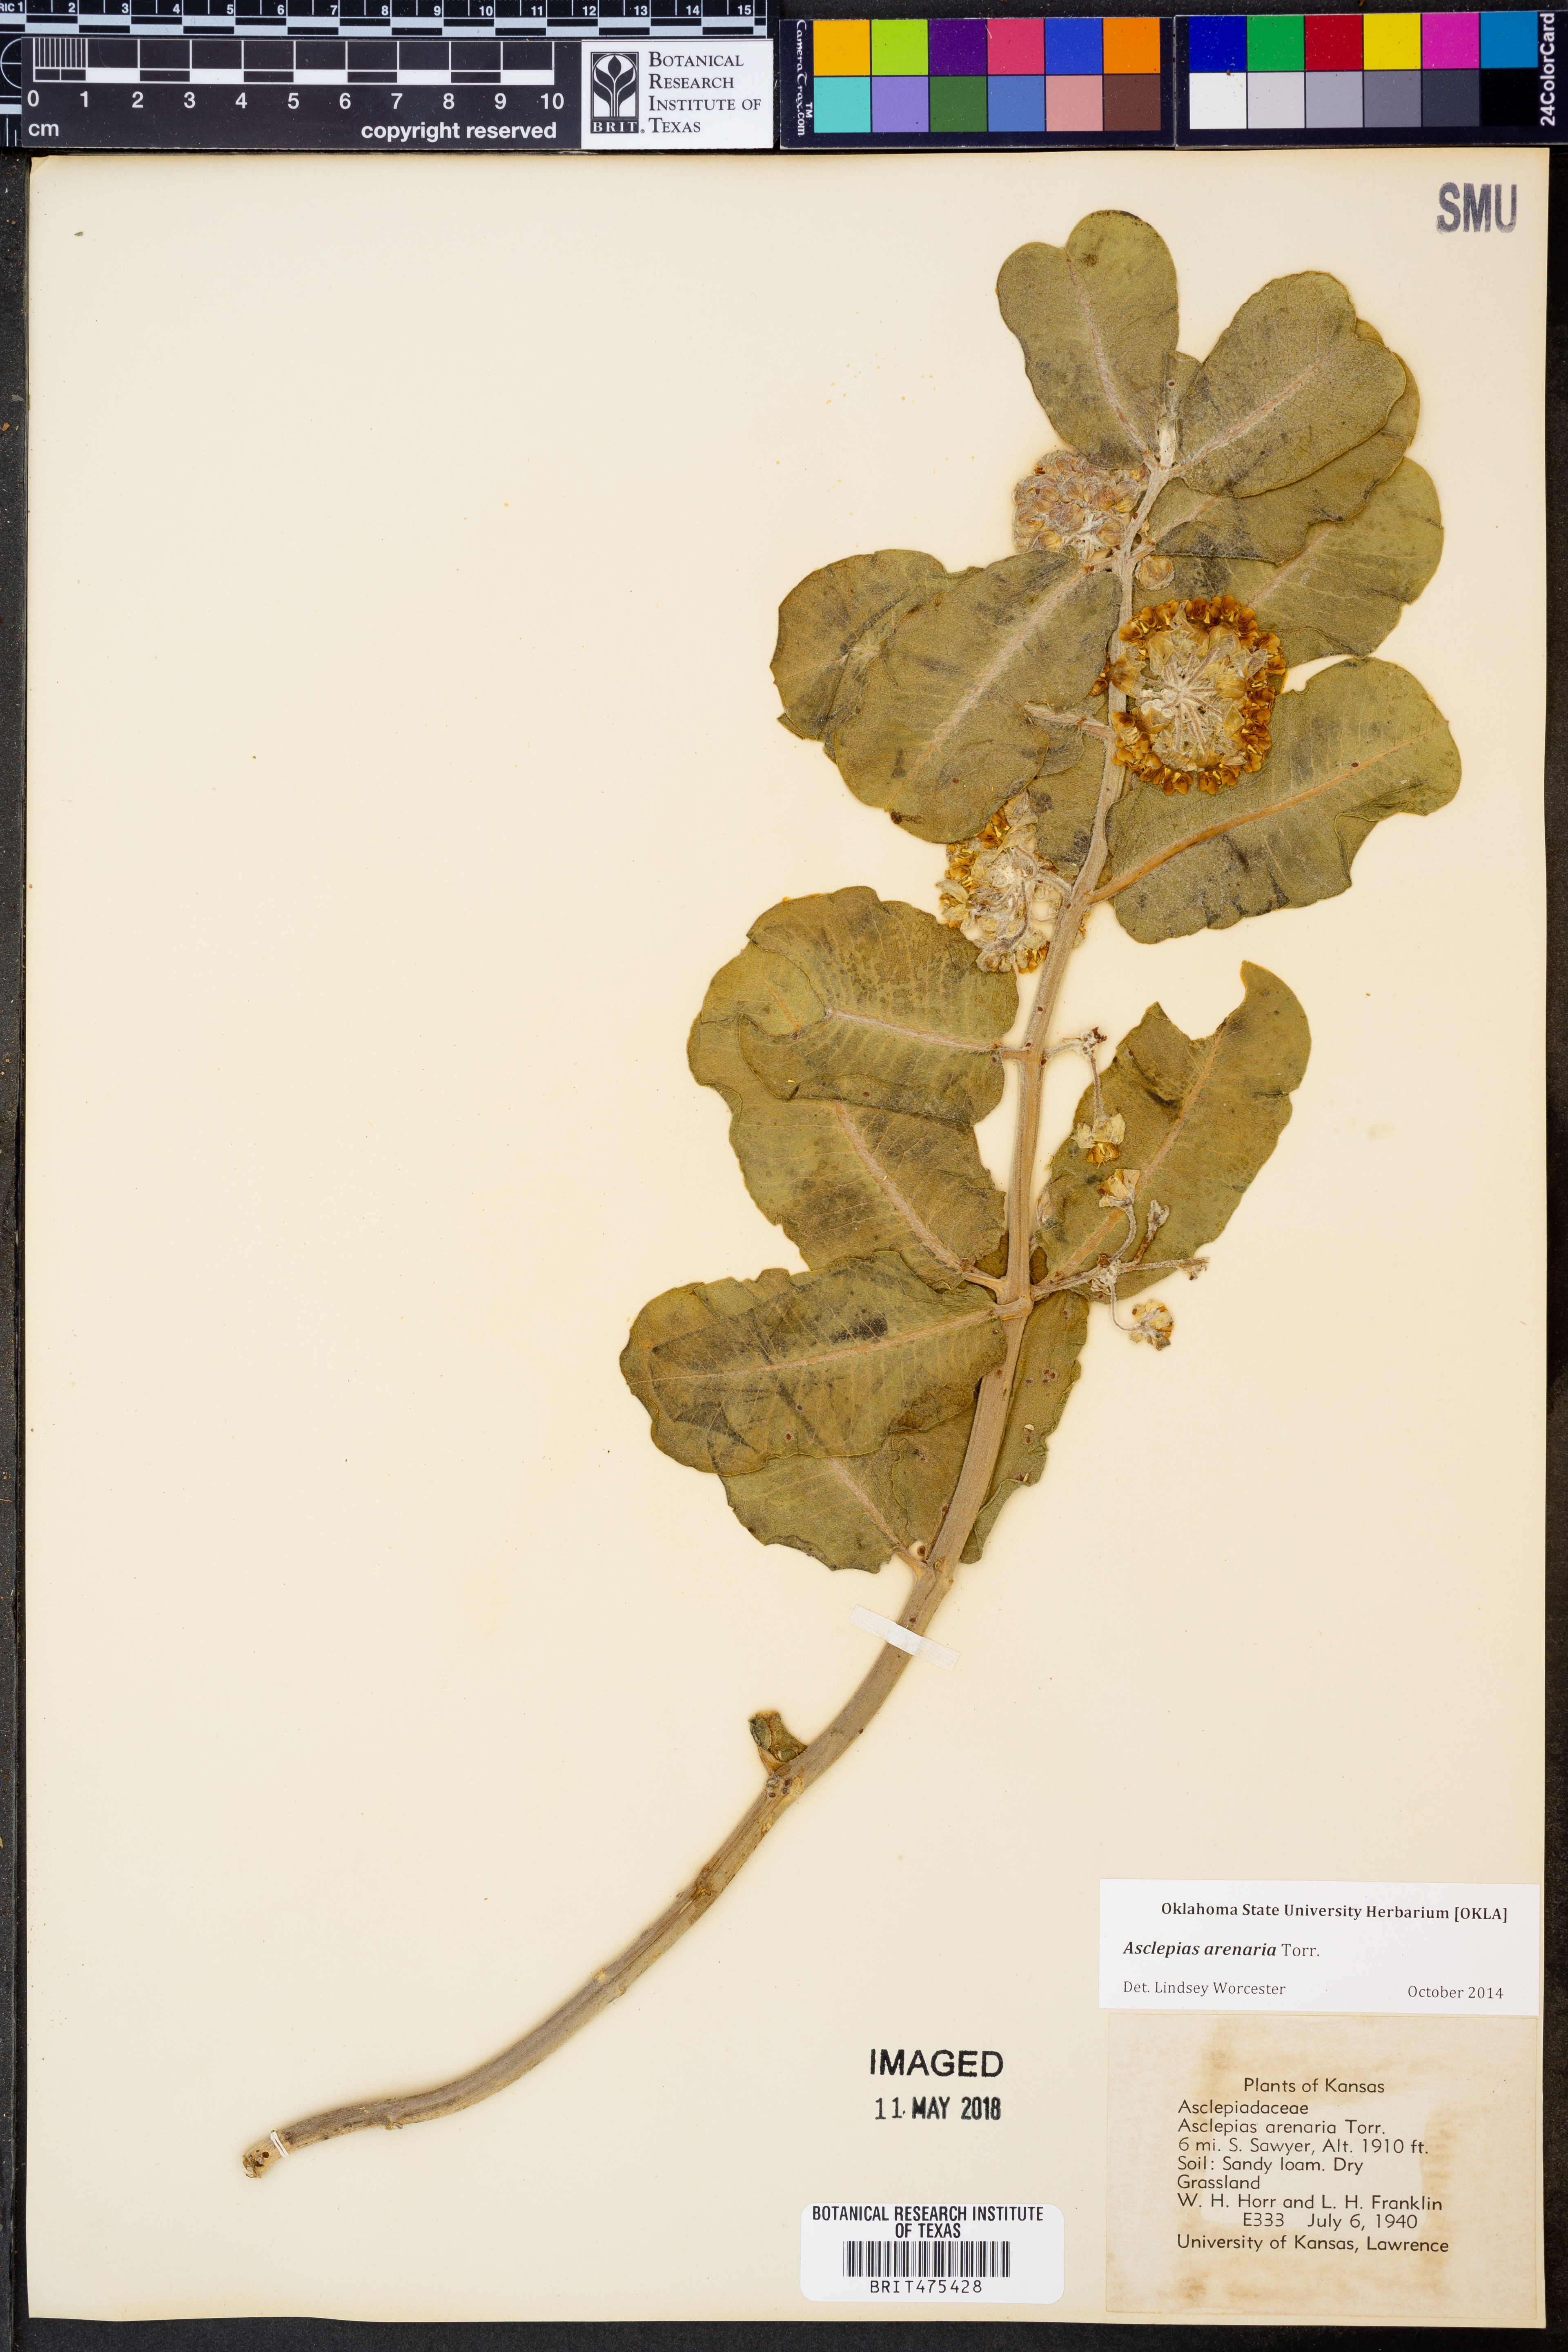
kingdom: Plantae
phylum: Tracheophyta
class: Magnoliopsida
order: Gentianales
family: Apocynaceae
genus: Asclepias
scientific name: Asclepias arenaria
